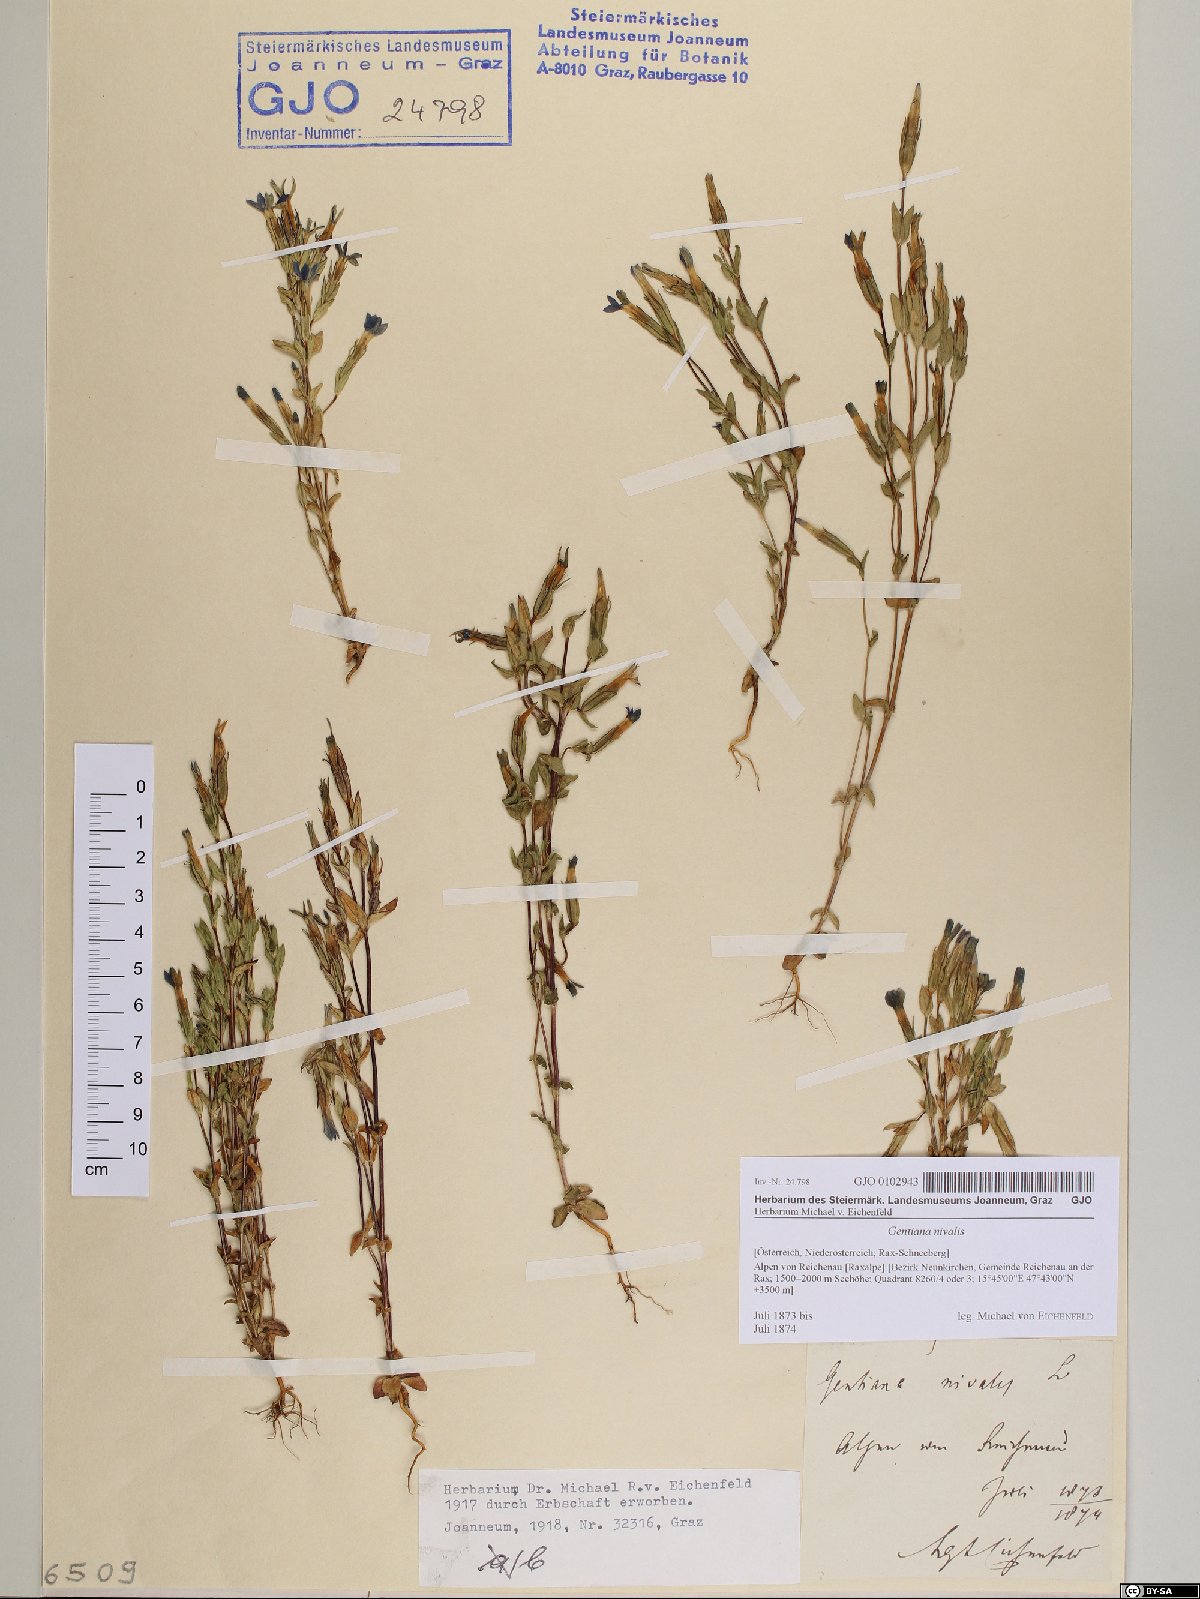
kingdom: Plantae
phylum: Tracheophyta
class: Magnoliopsida
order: Gentianales
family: Gentianaceae
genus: Gentiana
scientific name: Gentiana nivalis
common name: Alpine gentian
